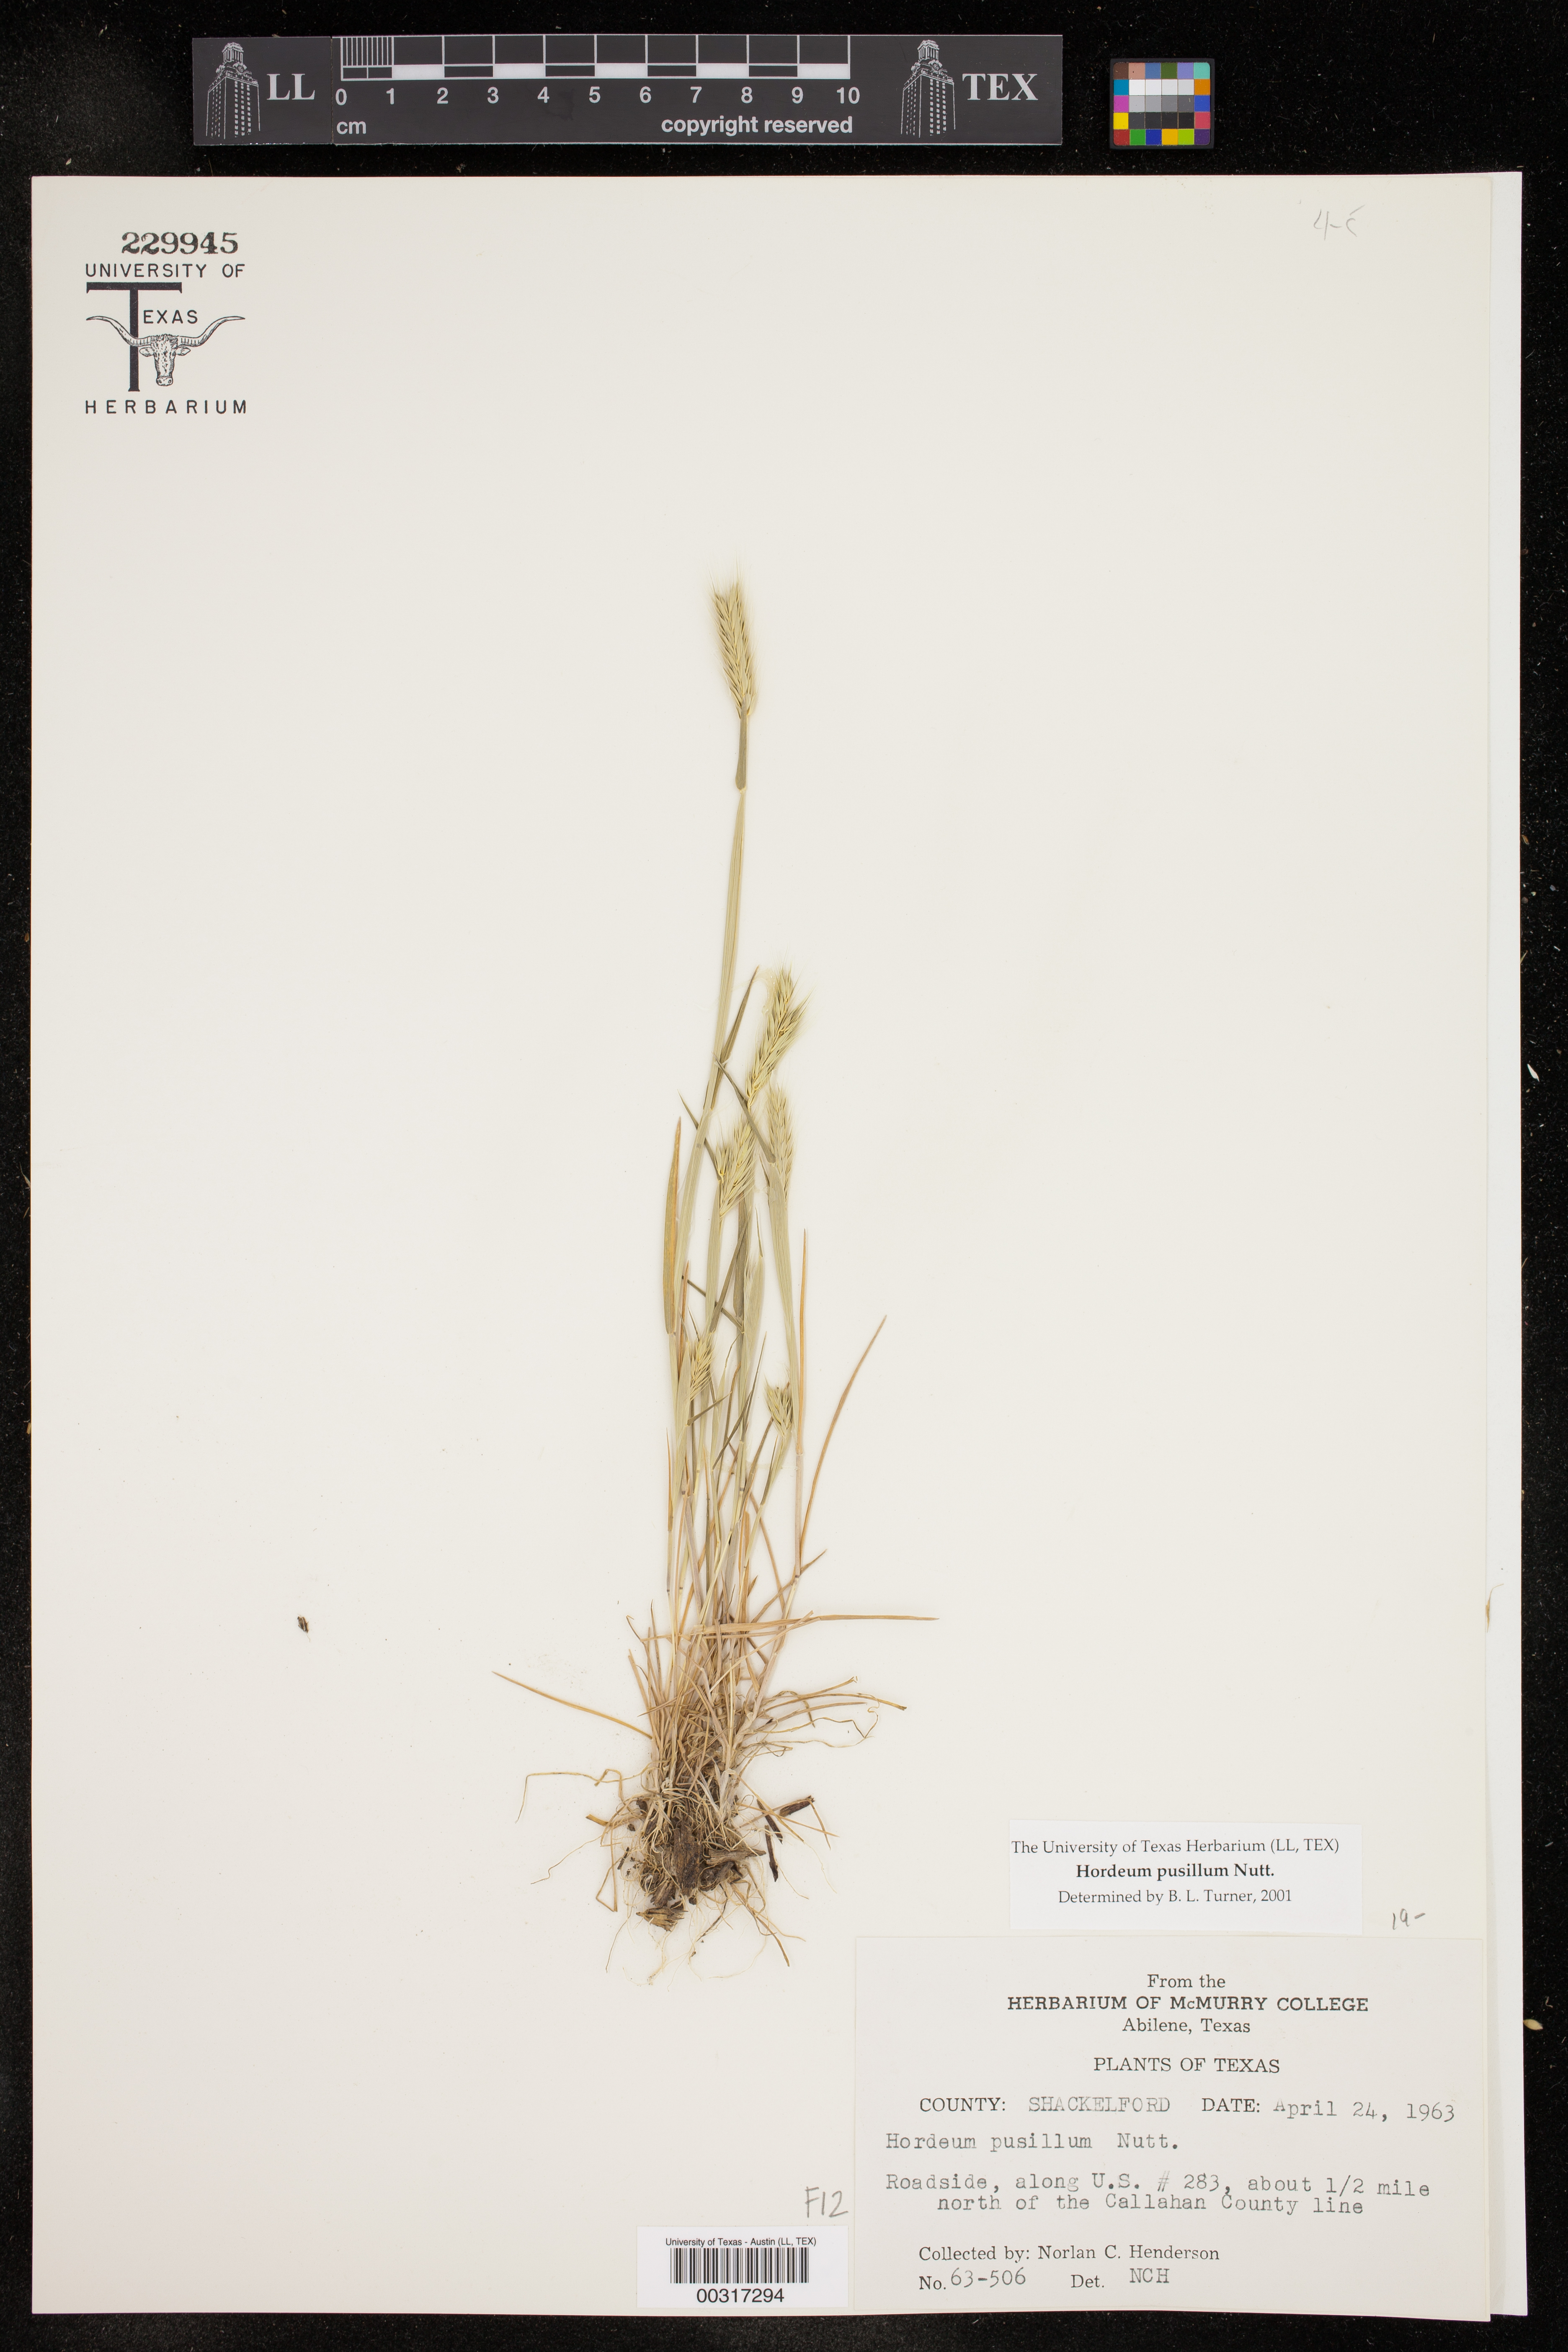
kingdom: Plantae
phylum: Tracheophyta
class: Liliopsida
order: Poales
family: Poaceae
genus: Hordeum
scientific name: Hordeum pusillum
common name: Little barley
